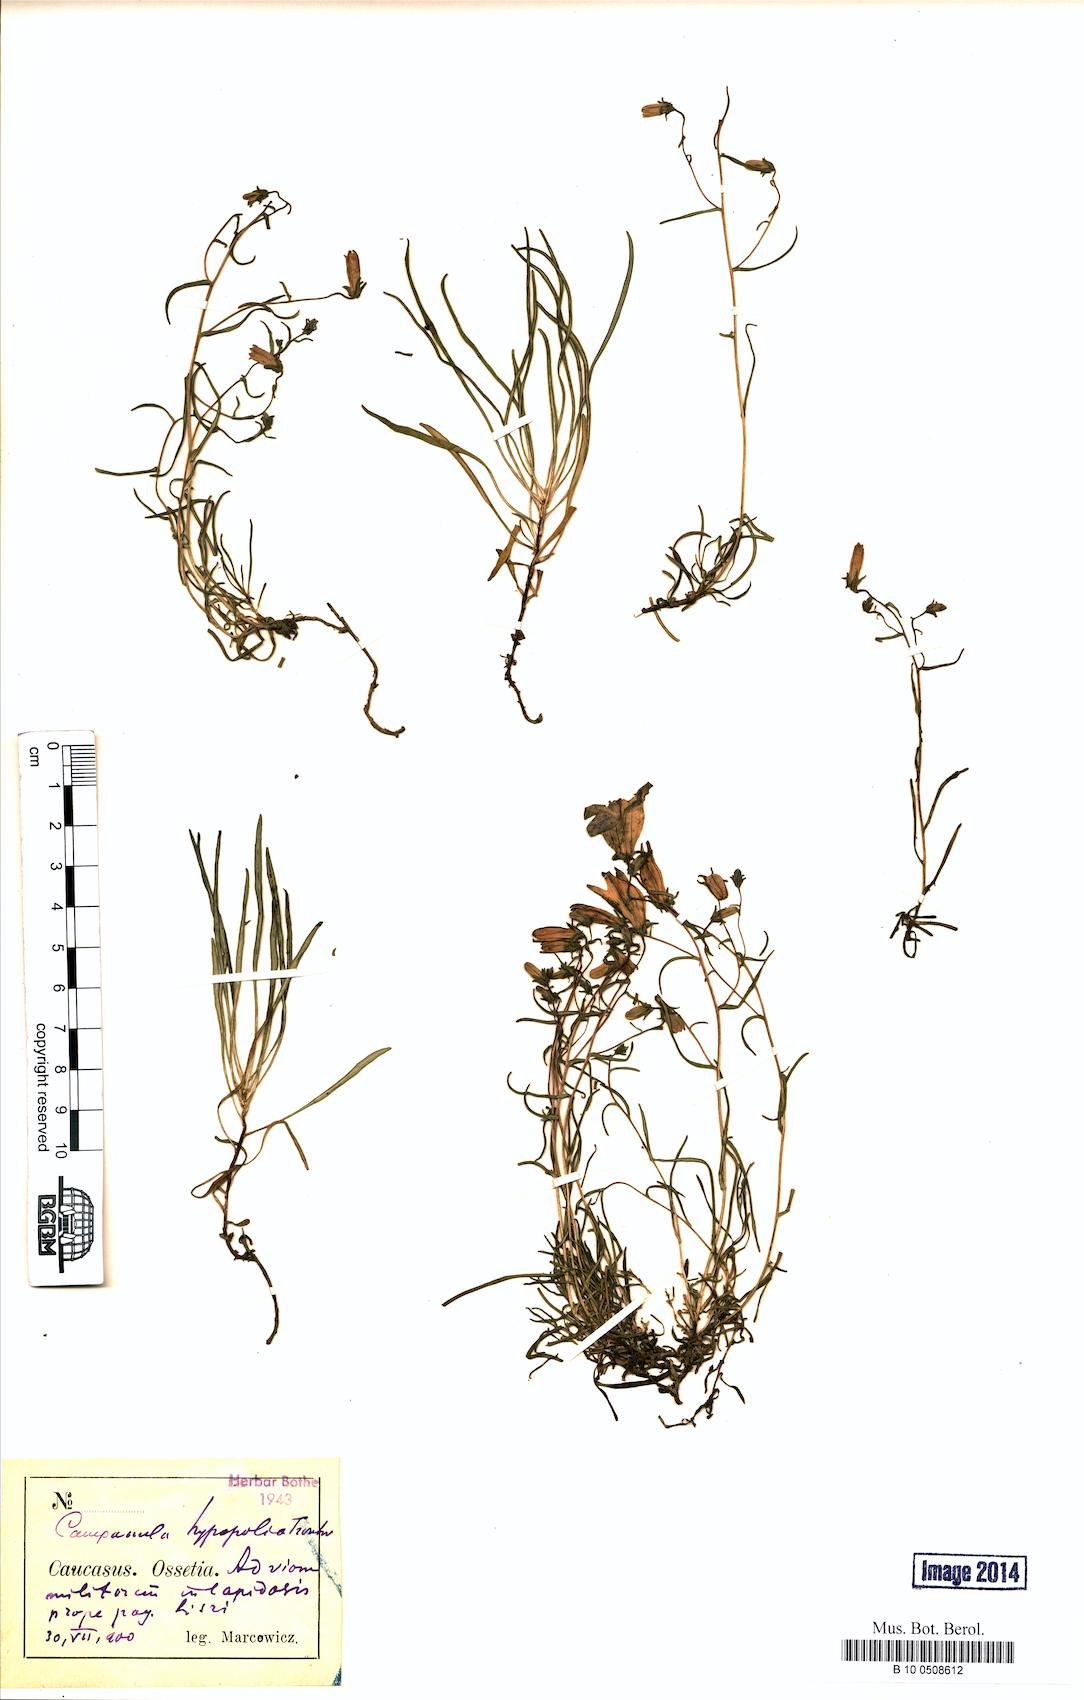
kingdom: Plantae
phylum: Tracheophyta
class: Magnoliopsida
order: Asterales
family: Campanulaceae
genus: Campanula
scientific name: Campanula hypopolia
